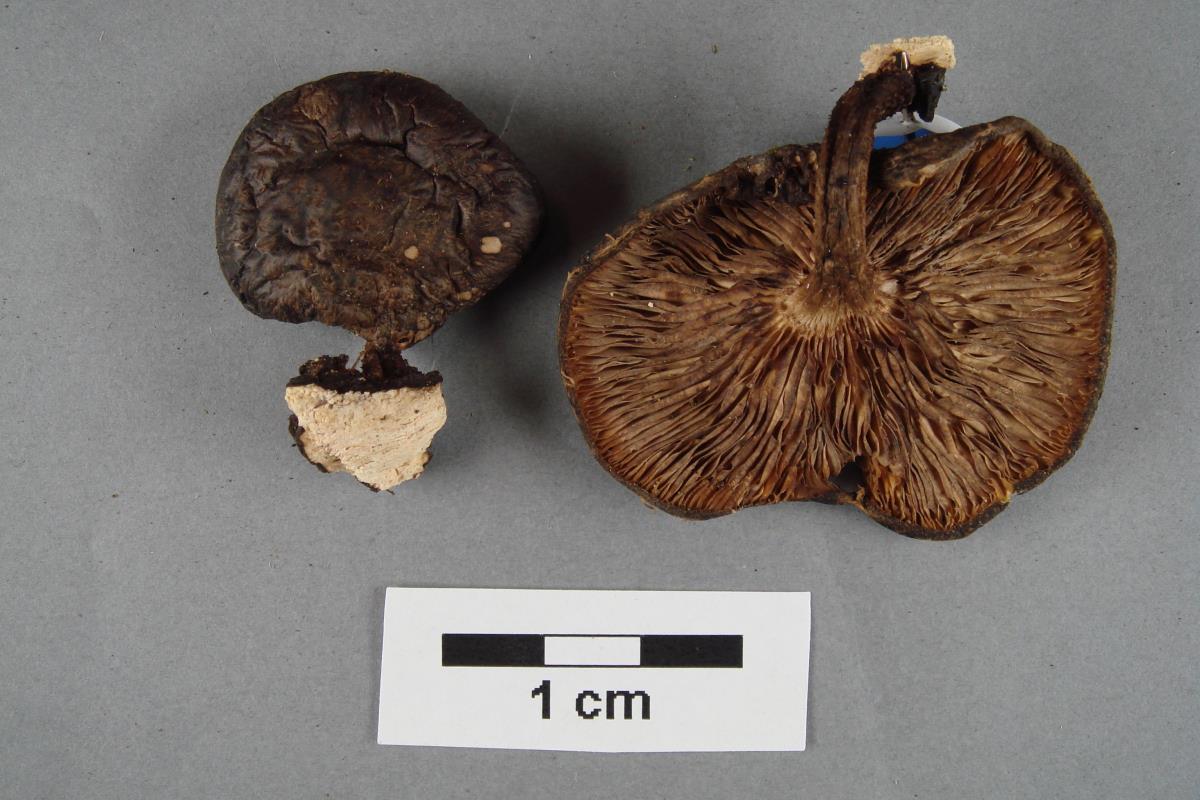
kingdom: Fungi
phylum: Basidiomycota
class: Agaricomycetes
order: Agaricales
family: Pluteaceae
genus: Pluteus
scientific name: Pluteus
